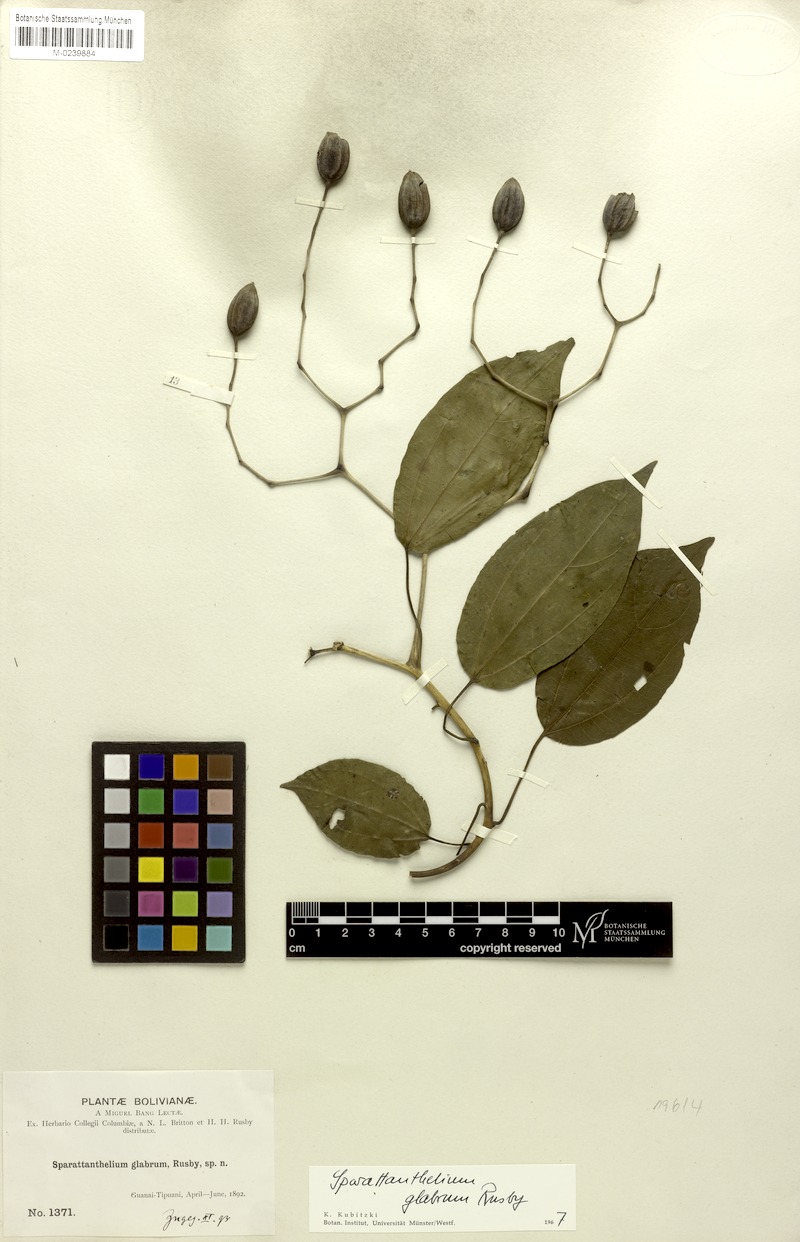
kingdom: Plantae
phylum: Tracheophyta
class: Magnoliopsida
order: Laurales
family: Hernandiaceae
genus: Sparattanthelium
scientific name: Sparattanthelium glabrum
